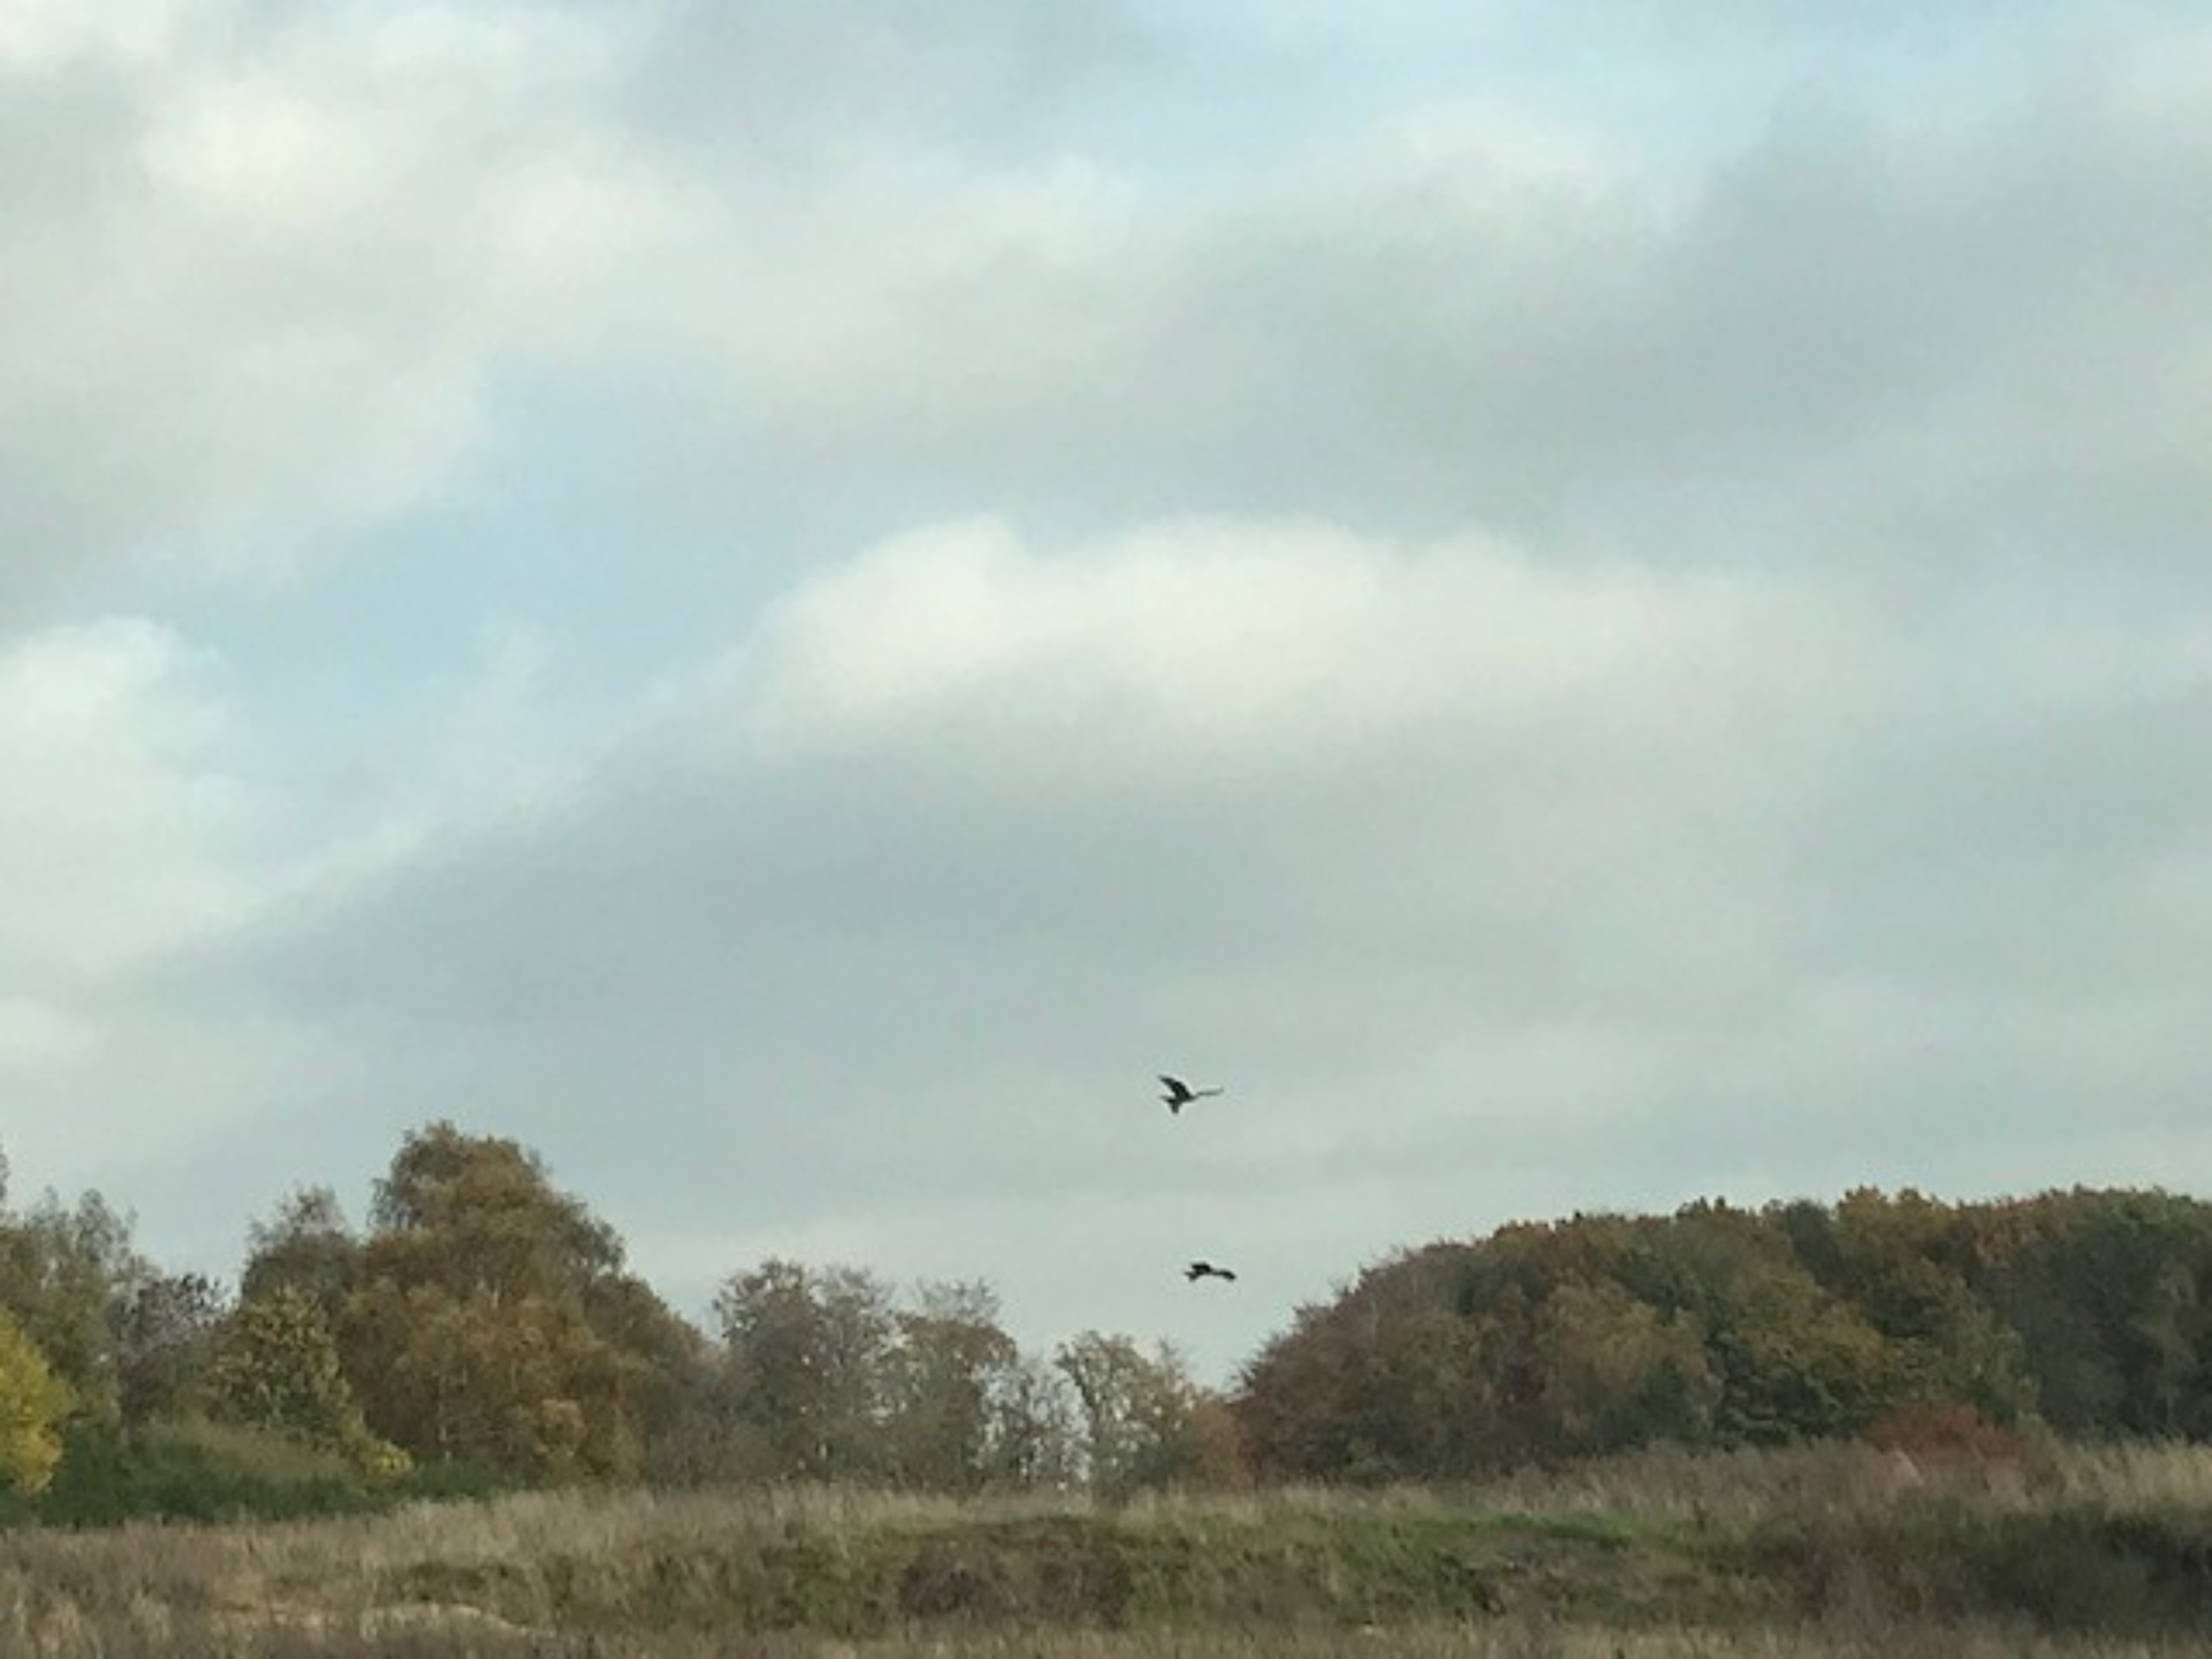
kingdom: Animalia
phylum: Chordata
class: Aves
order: Accipitriformes
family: Accipitridae
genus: Milvus
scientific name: Milvus milvus
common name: Rød glente
